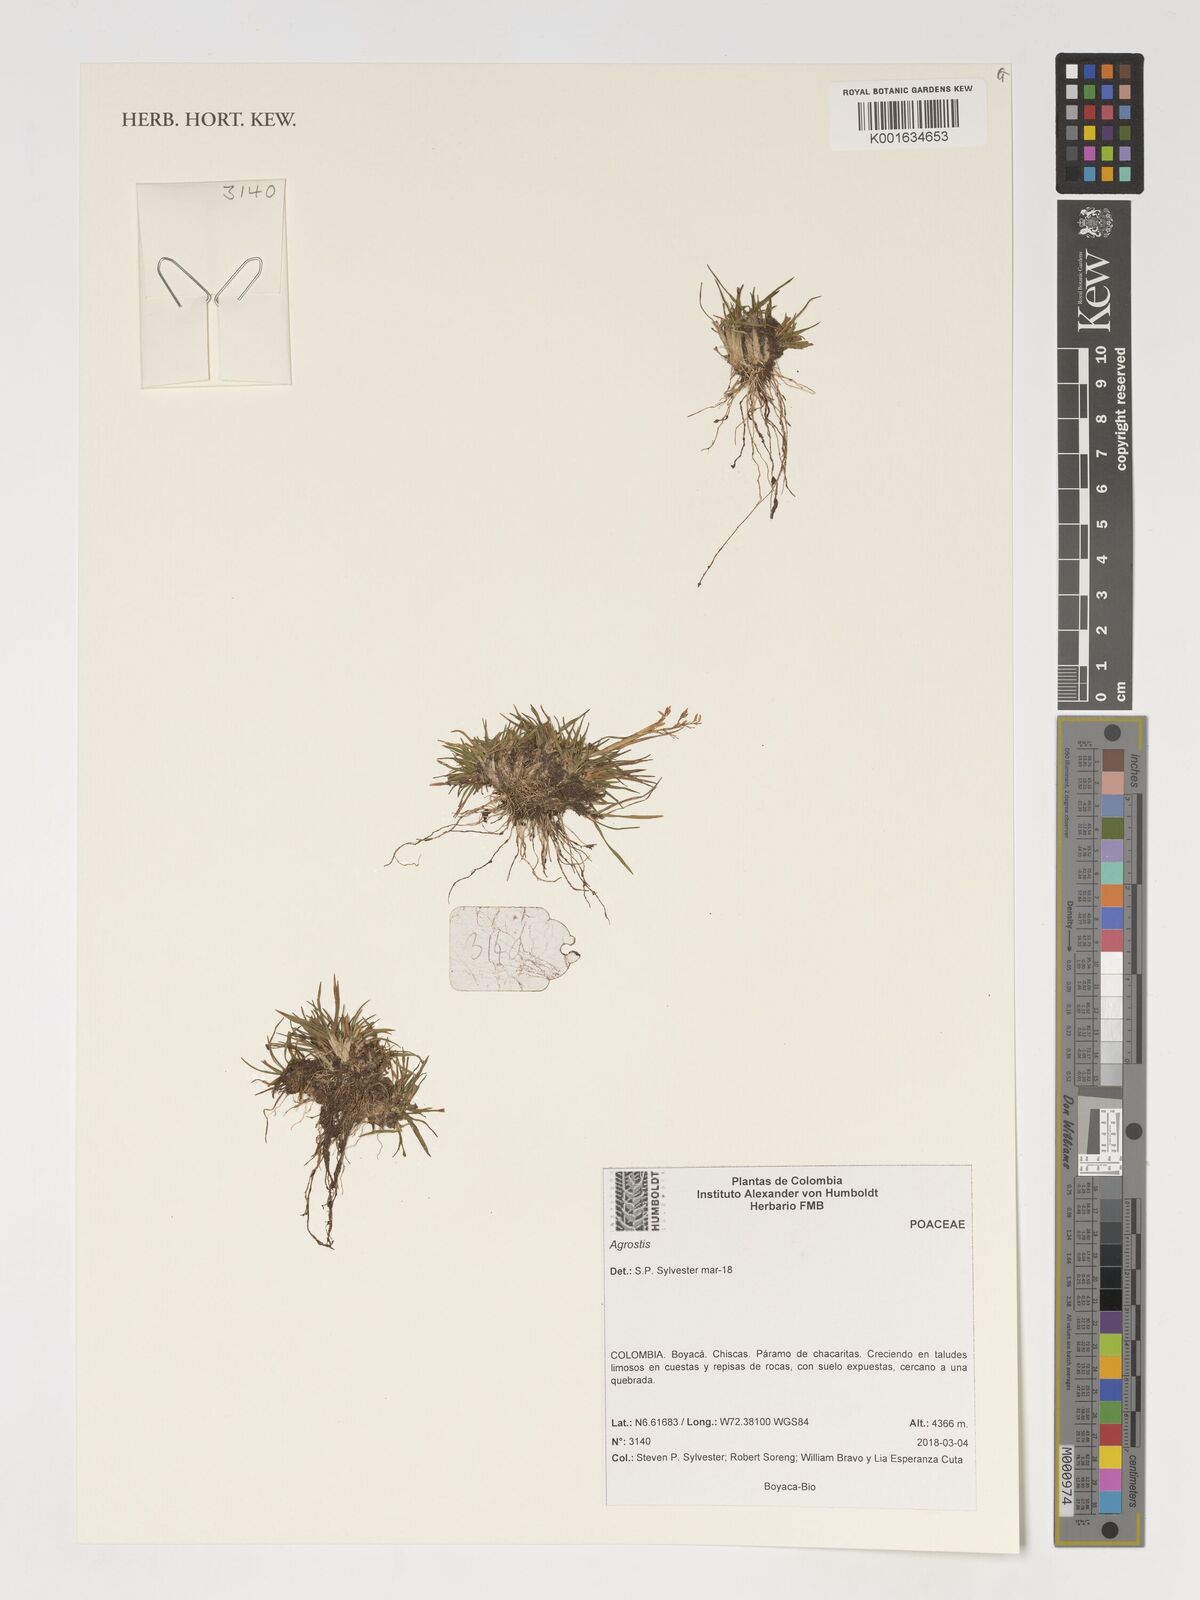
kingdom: Plantae
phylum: Tracheophyta
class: Liliopsida
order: Poales
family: Poaceae
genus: Agrostis
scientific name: Agrostis
